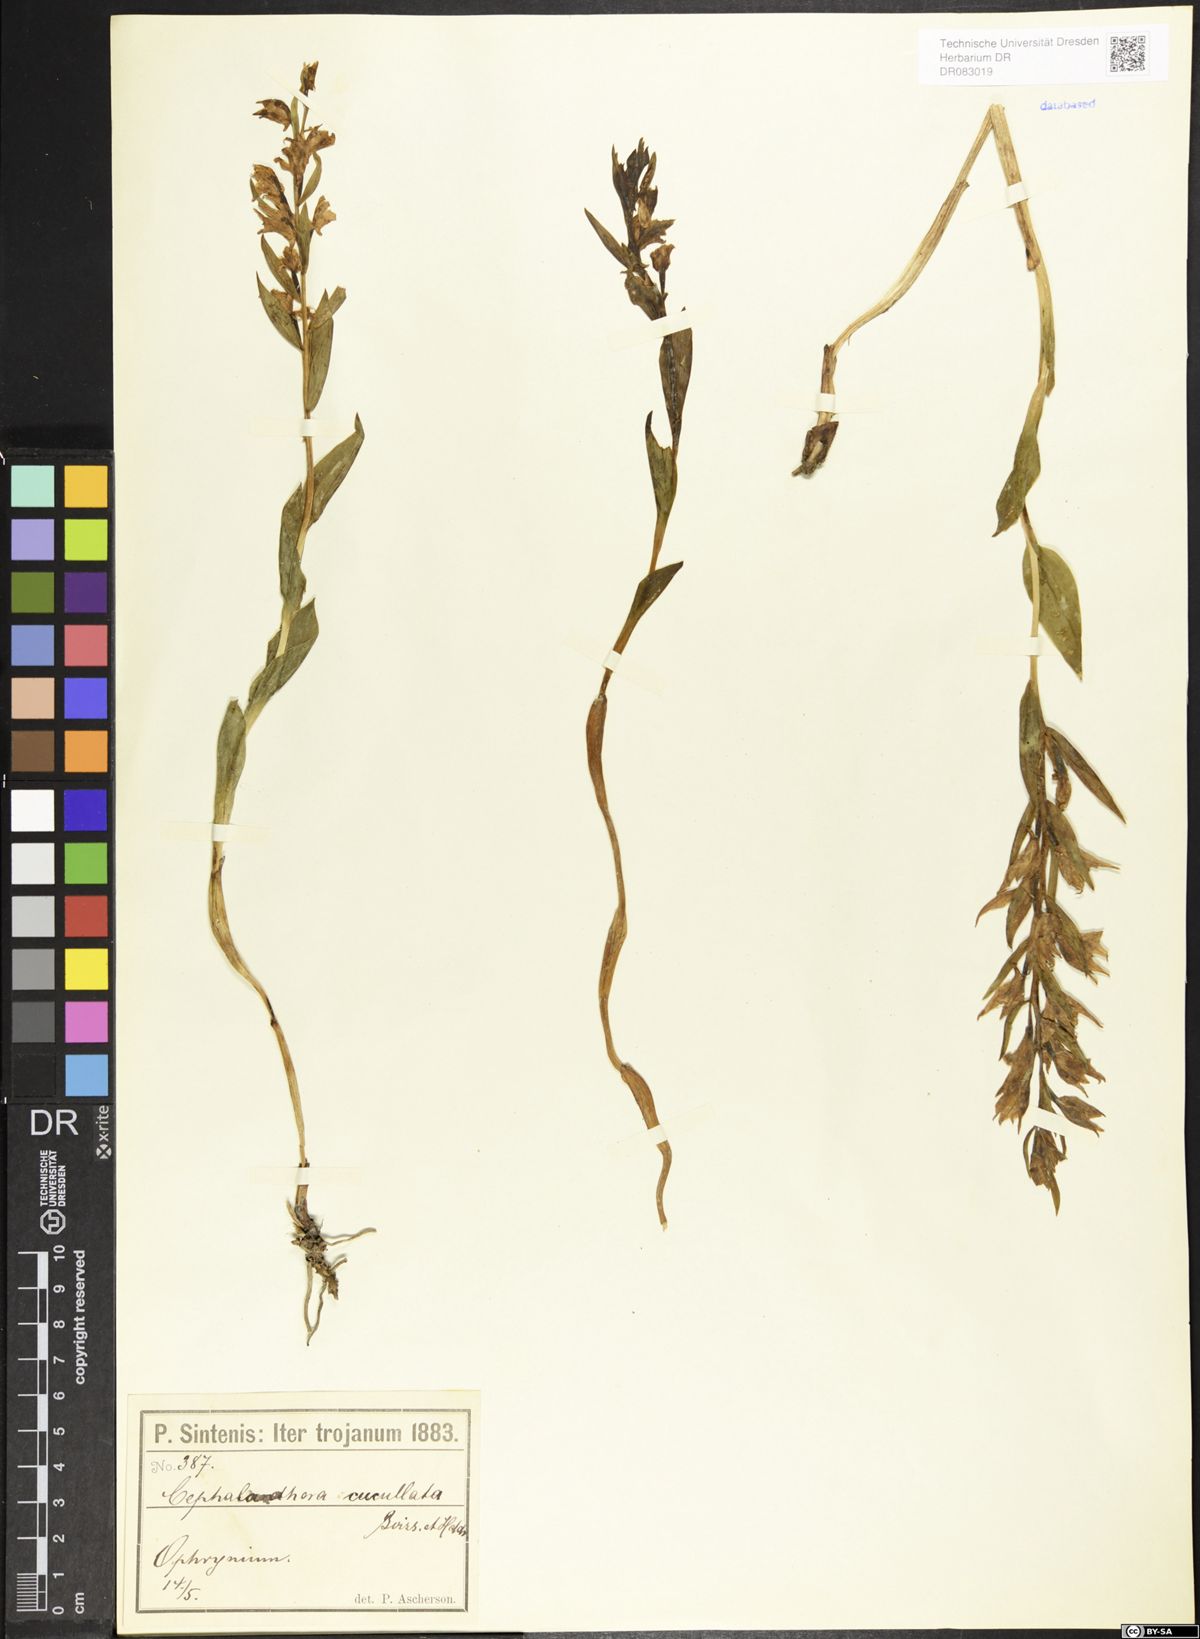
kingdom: Plantae
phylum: Tracheophyta
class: Liliopsida
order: Asparagales
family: Orchidaceae
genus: Cephalanthera
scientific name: Cephalanthera cucullata
